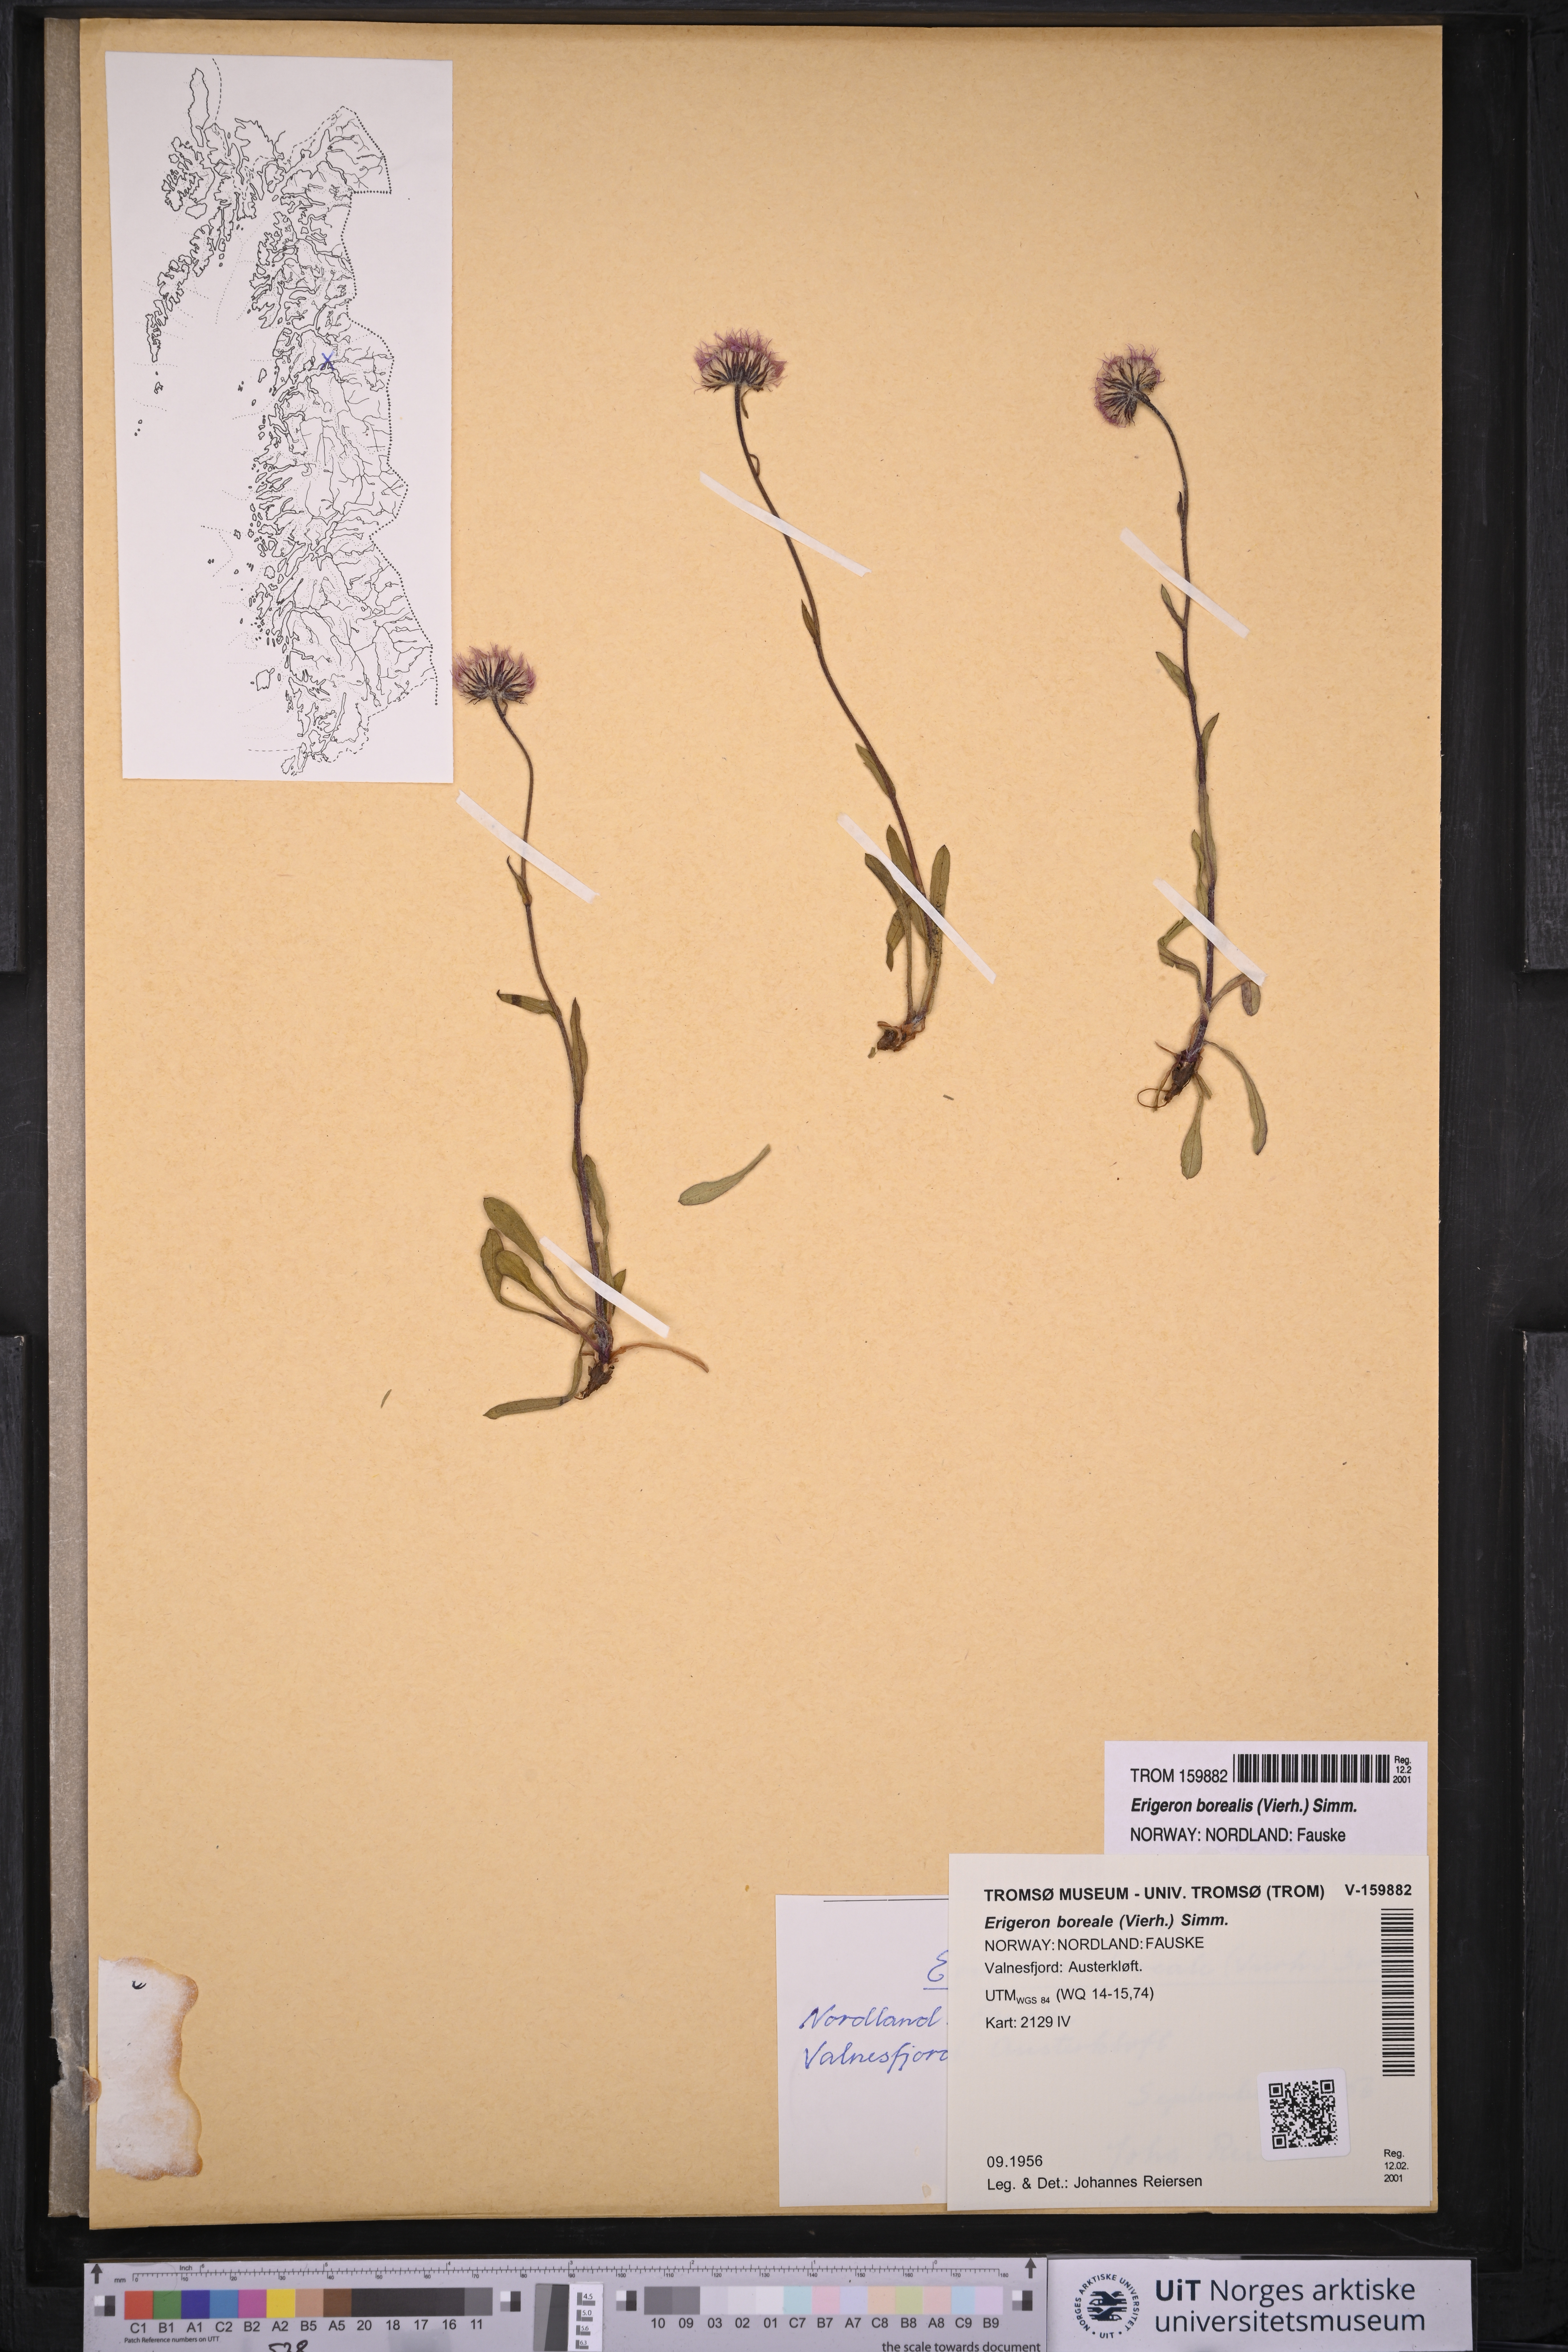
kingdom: Plantae
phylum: Tracheophyta
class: Magnoliopsida
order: Asterales
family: Asteraceae
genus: Erigeron
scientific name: Erigeron borealis
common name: Alpine fleabane
